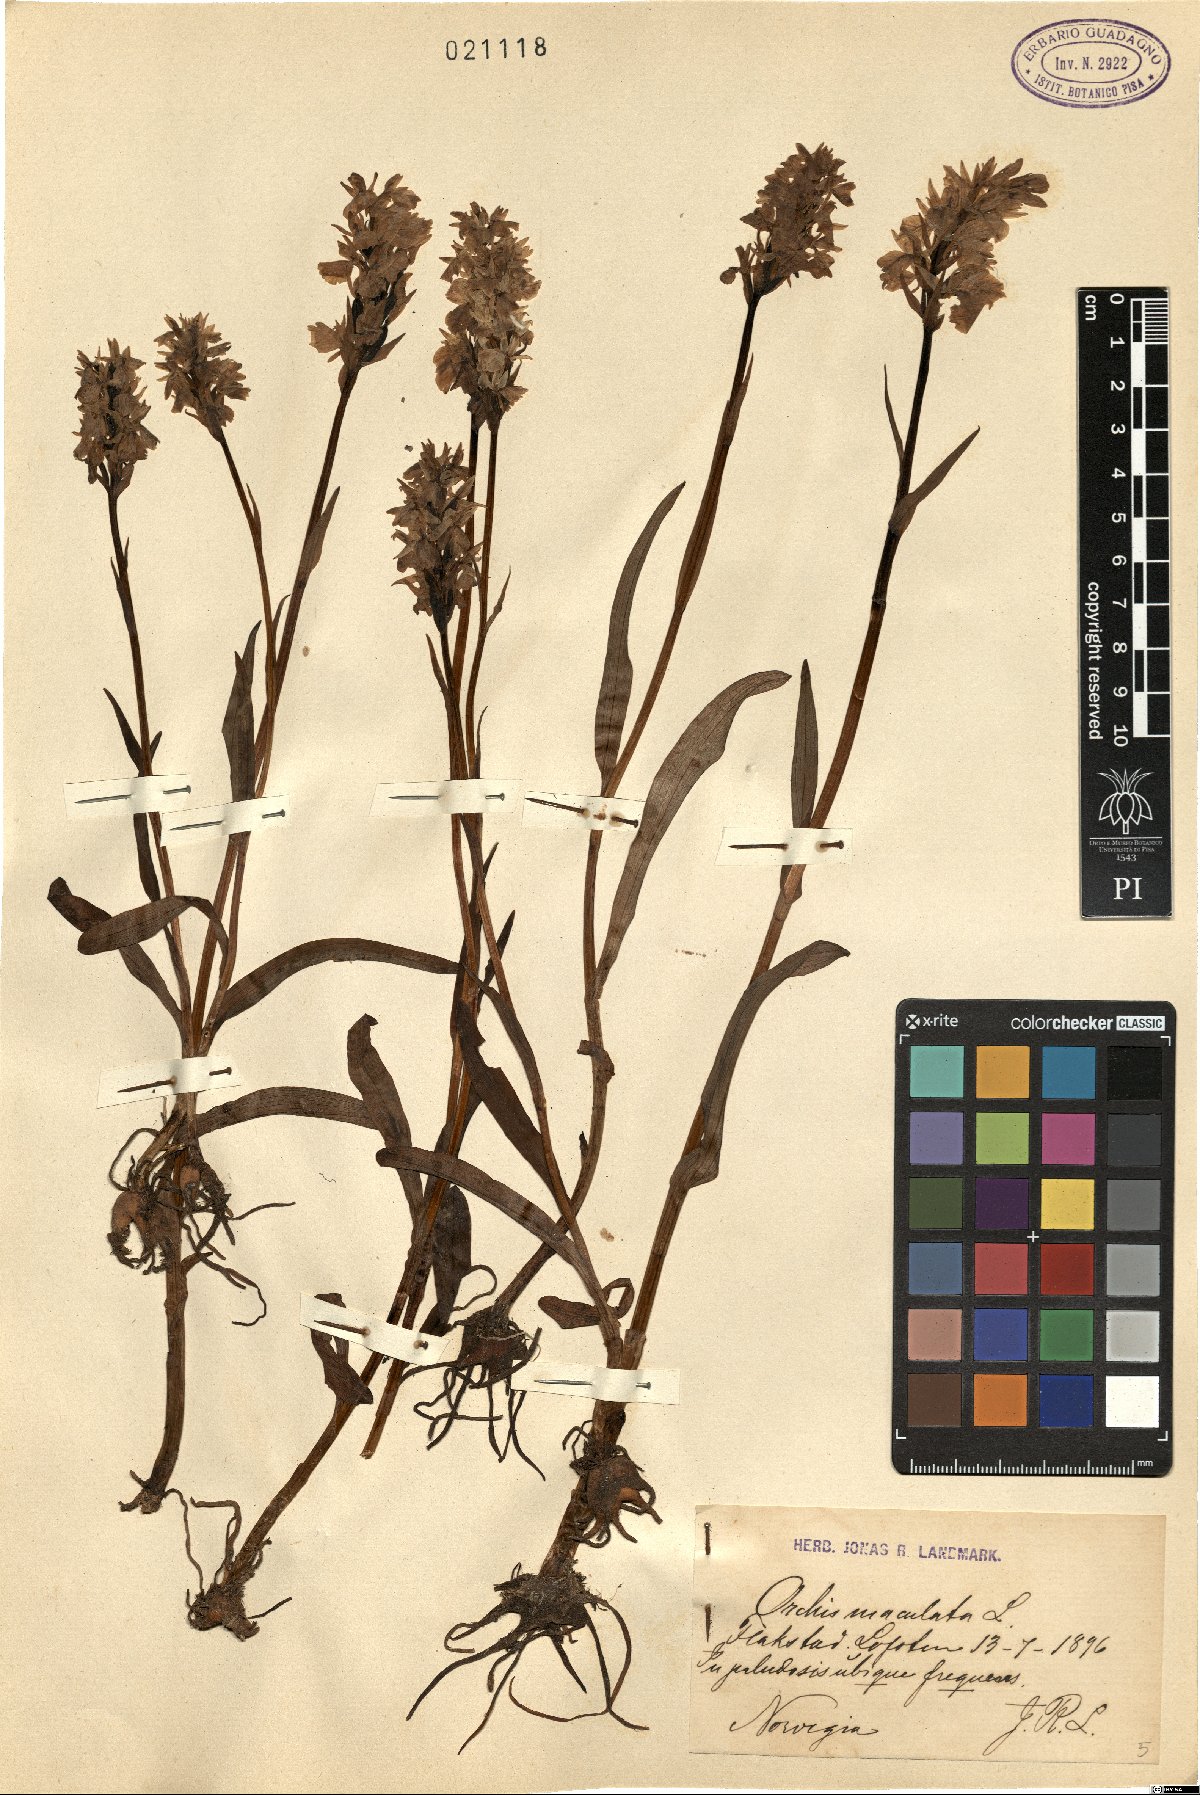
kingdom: Plantae
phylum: Tracheophyta
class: Liliopsida
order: Asparagales
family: Orchidaceae
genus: Dactylorhiza
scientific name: Dactylorhiza maculata
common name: Heath spotted-orchid
